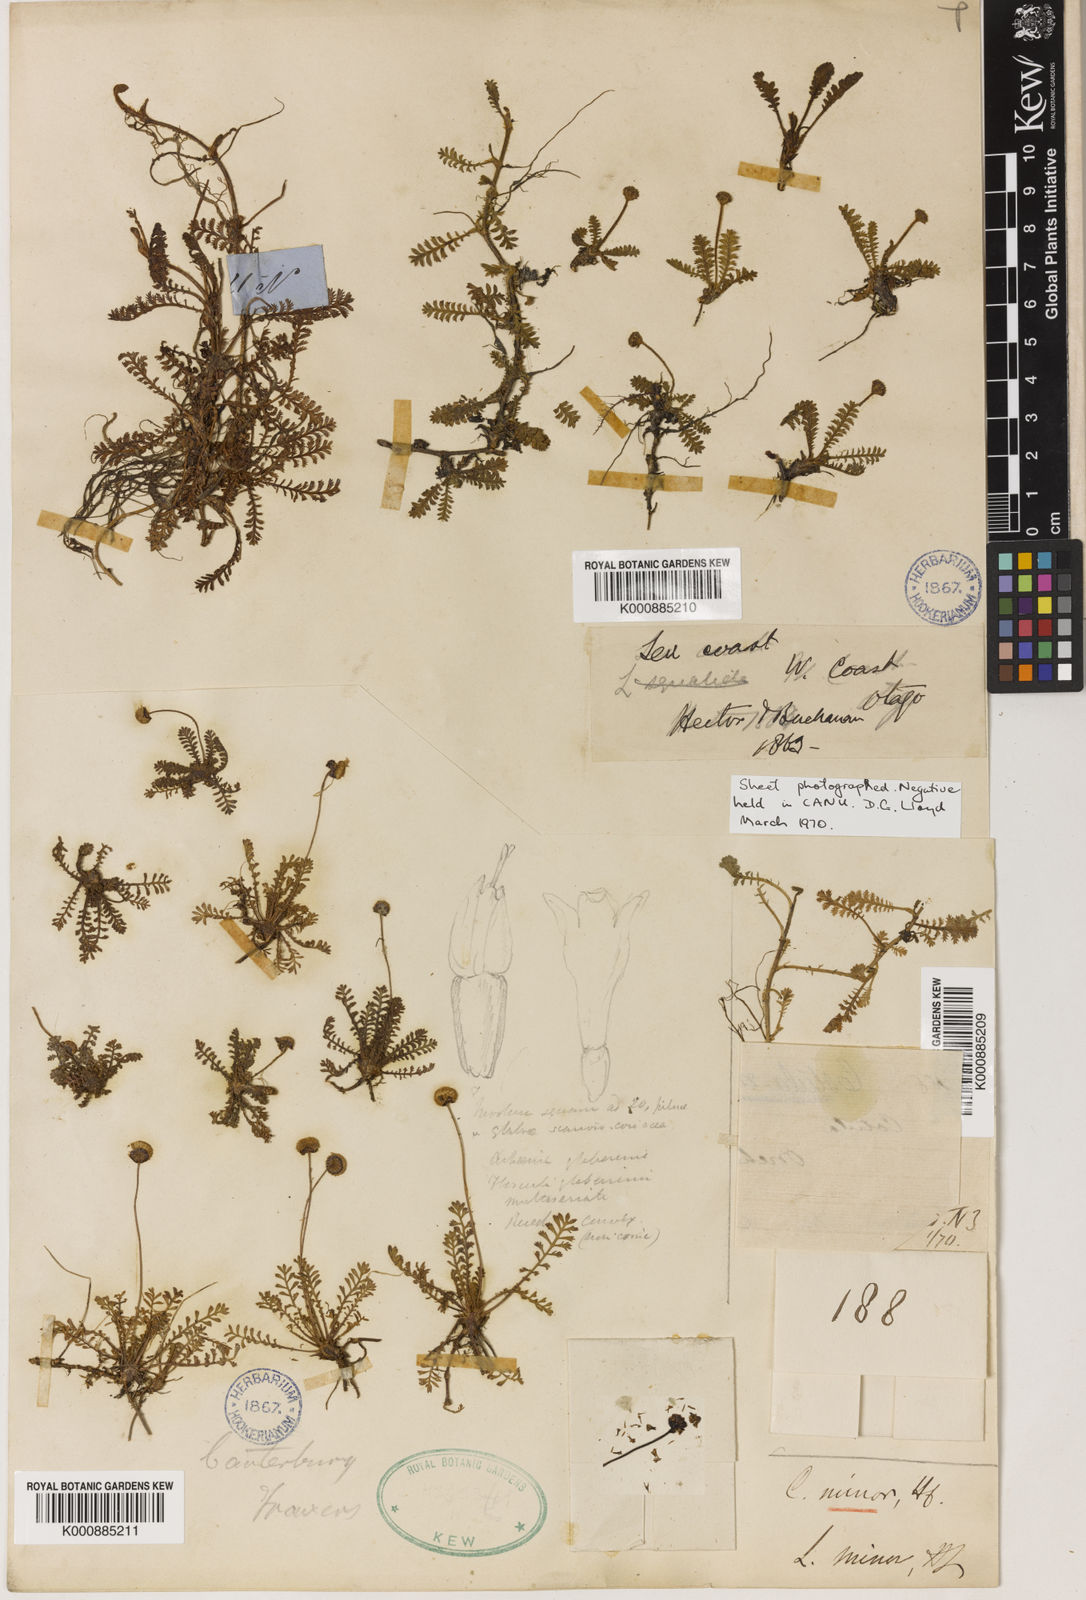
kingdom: Plantae
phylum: Tracheophyta
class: Magnoliopsida
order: Asterales
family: Asteraceae
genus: Leptinella
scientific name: Leptinella minor
